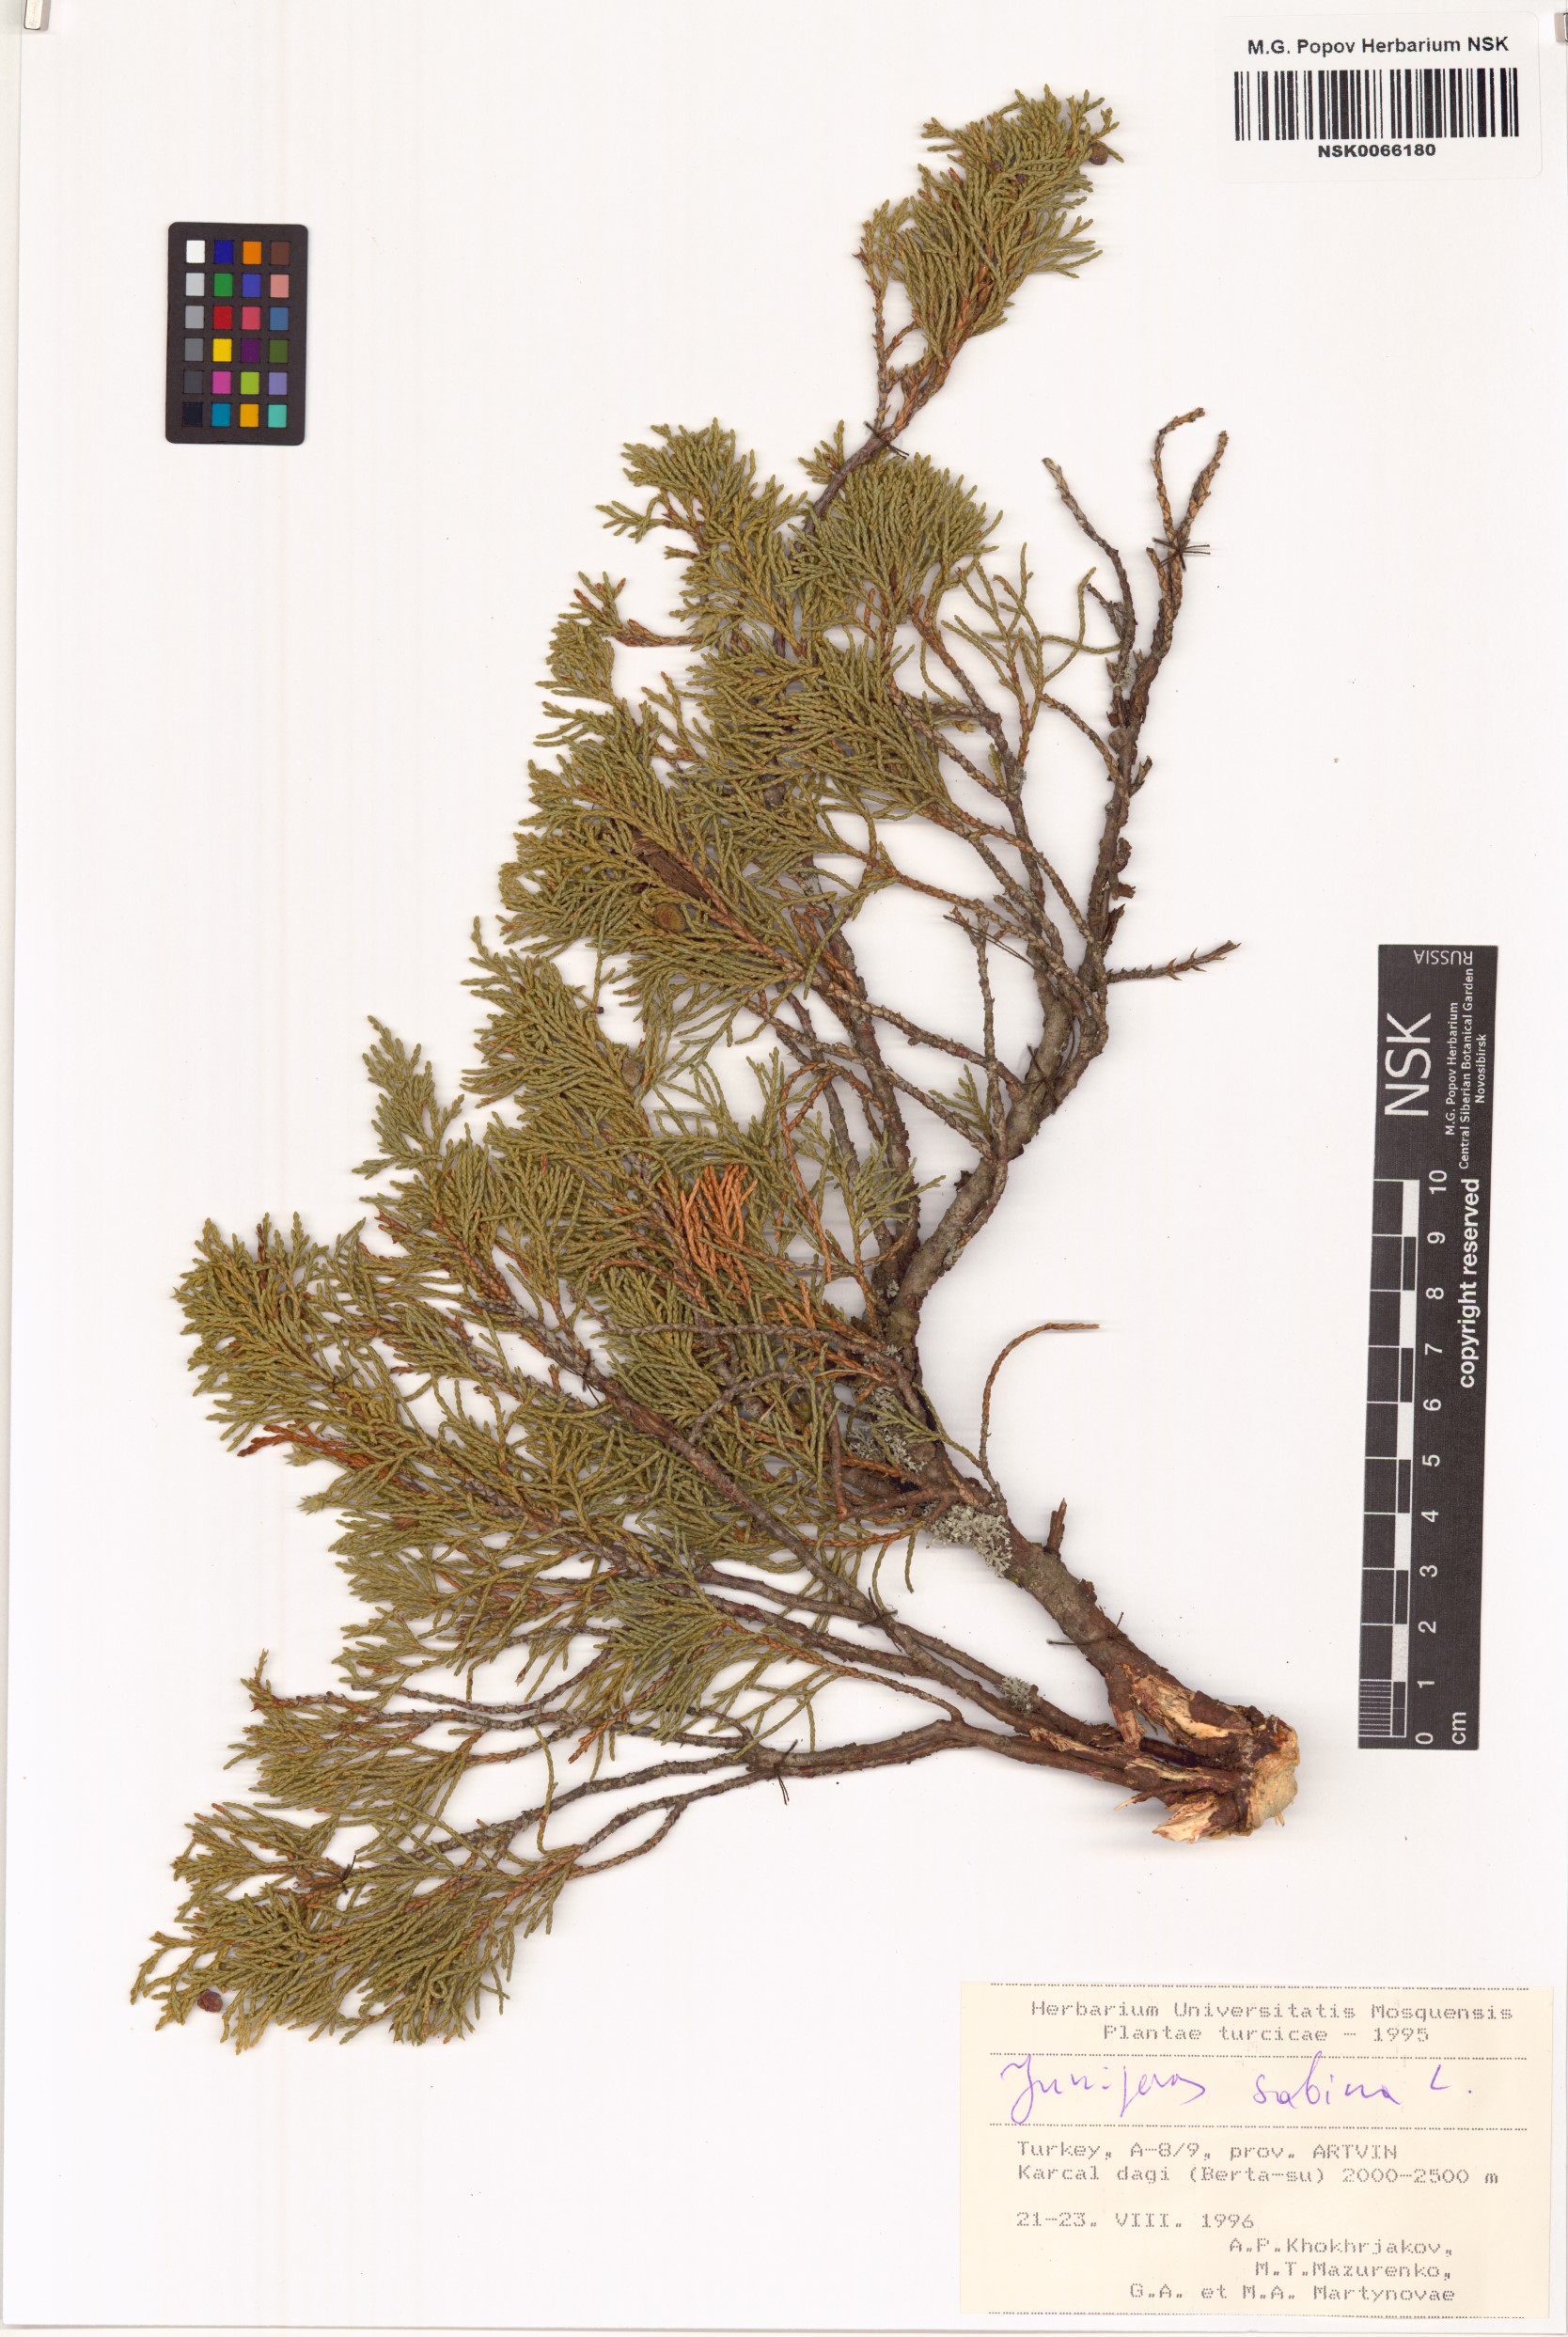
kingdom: Plantae
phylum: Tracheophyta
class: Pinopsida
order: Pinales
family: Cupressaceae
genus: Juniperus
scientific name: Juniperus sabina
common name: Savin
